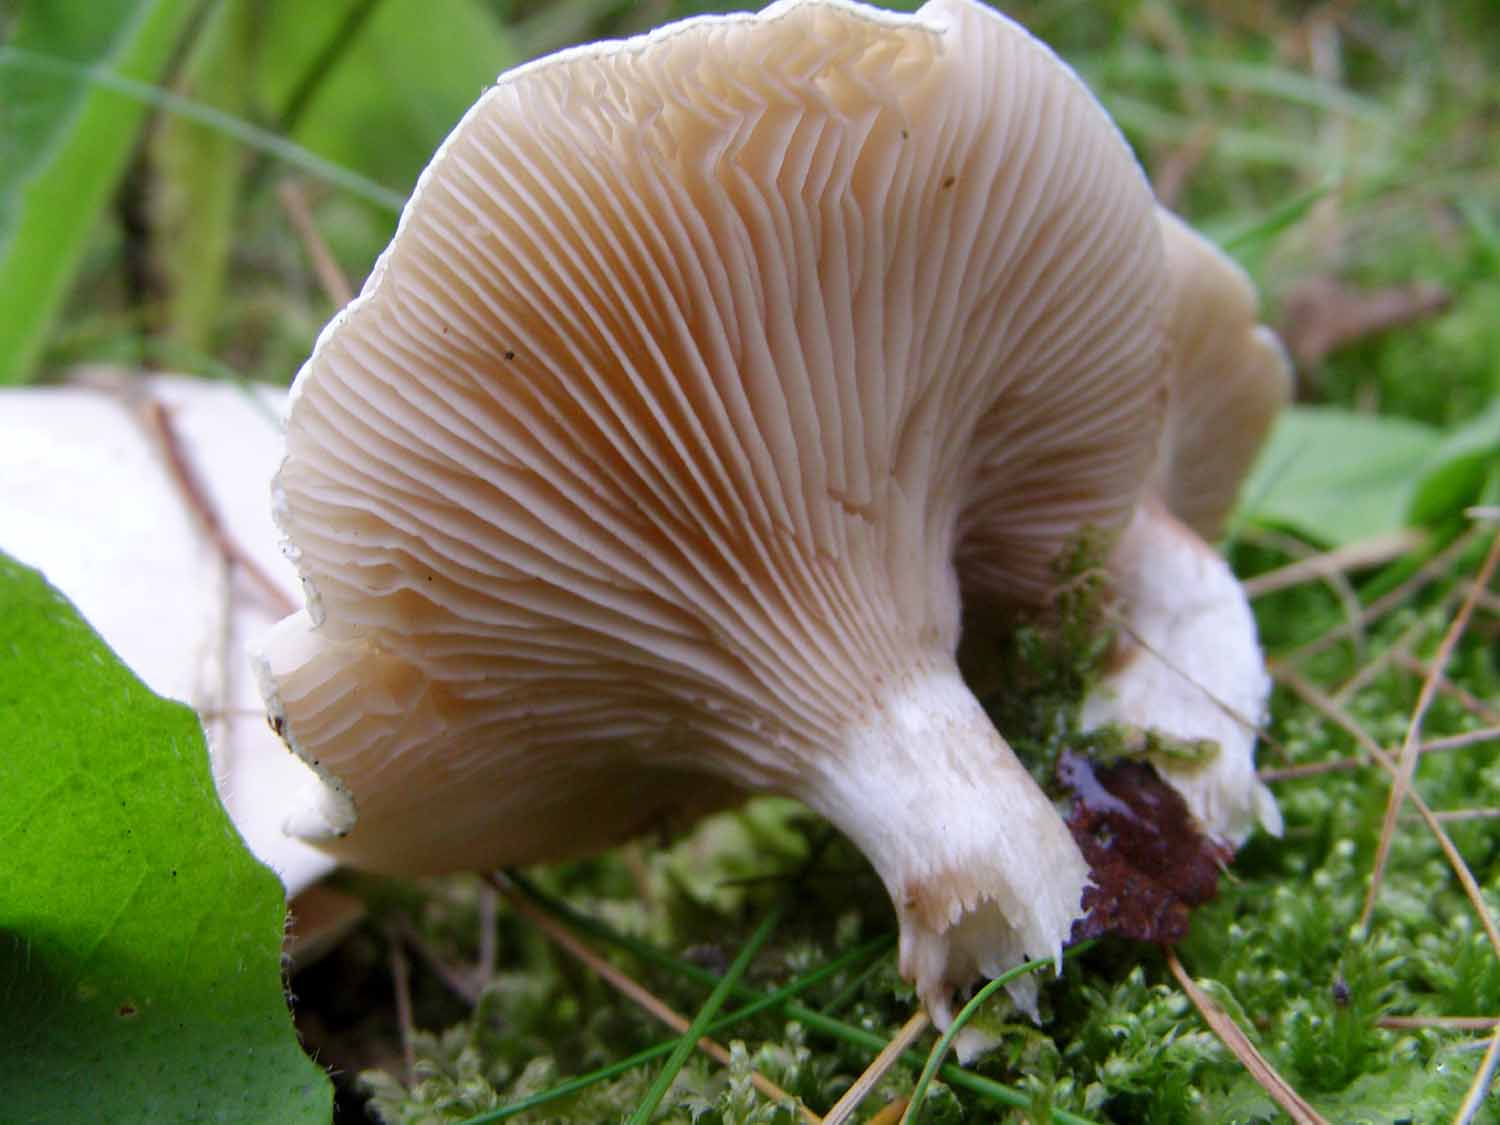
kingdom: Fungi
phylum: Basidiomycota
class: Agaricomycetes
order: Agaricales
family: Entolomataceae
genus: Clitopilus
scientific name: Clitopilus prunulus
